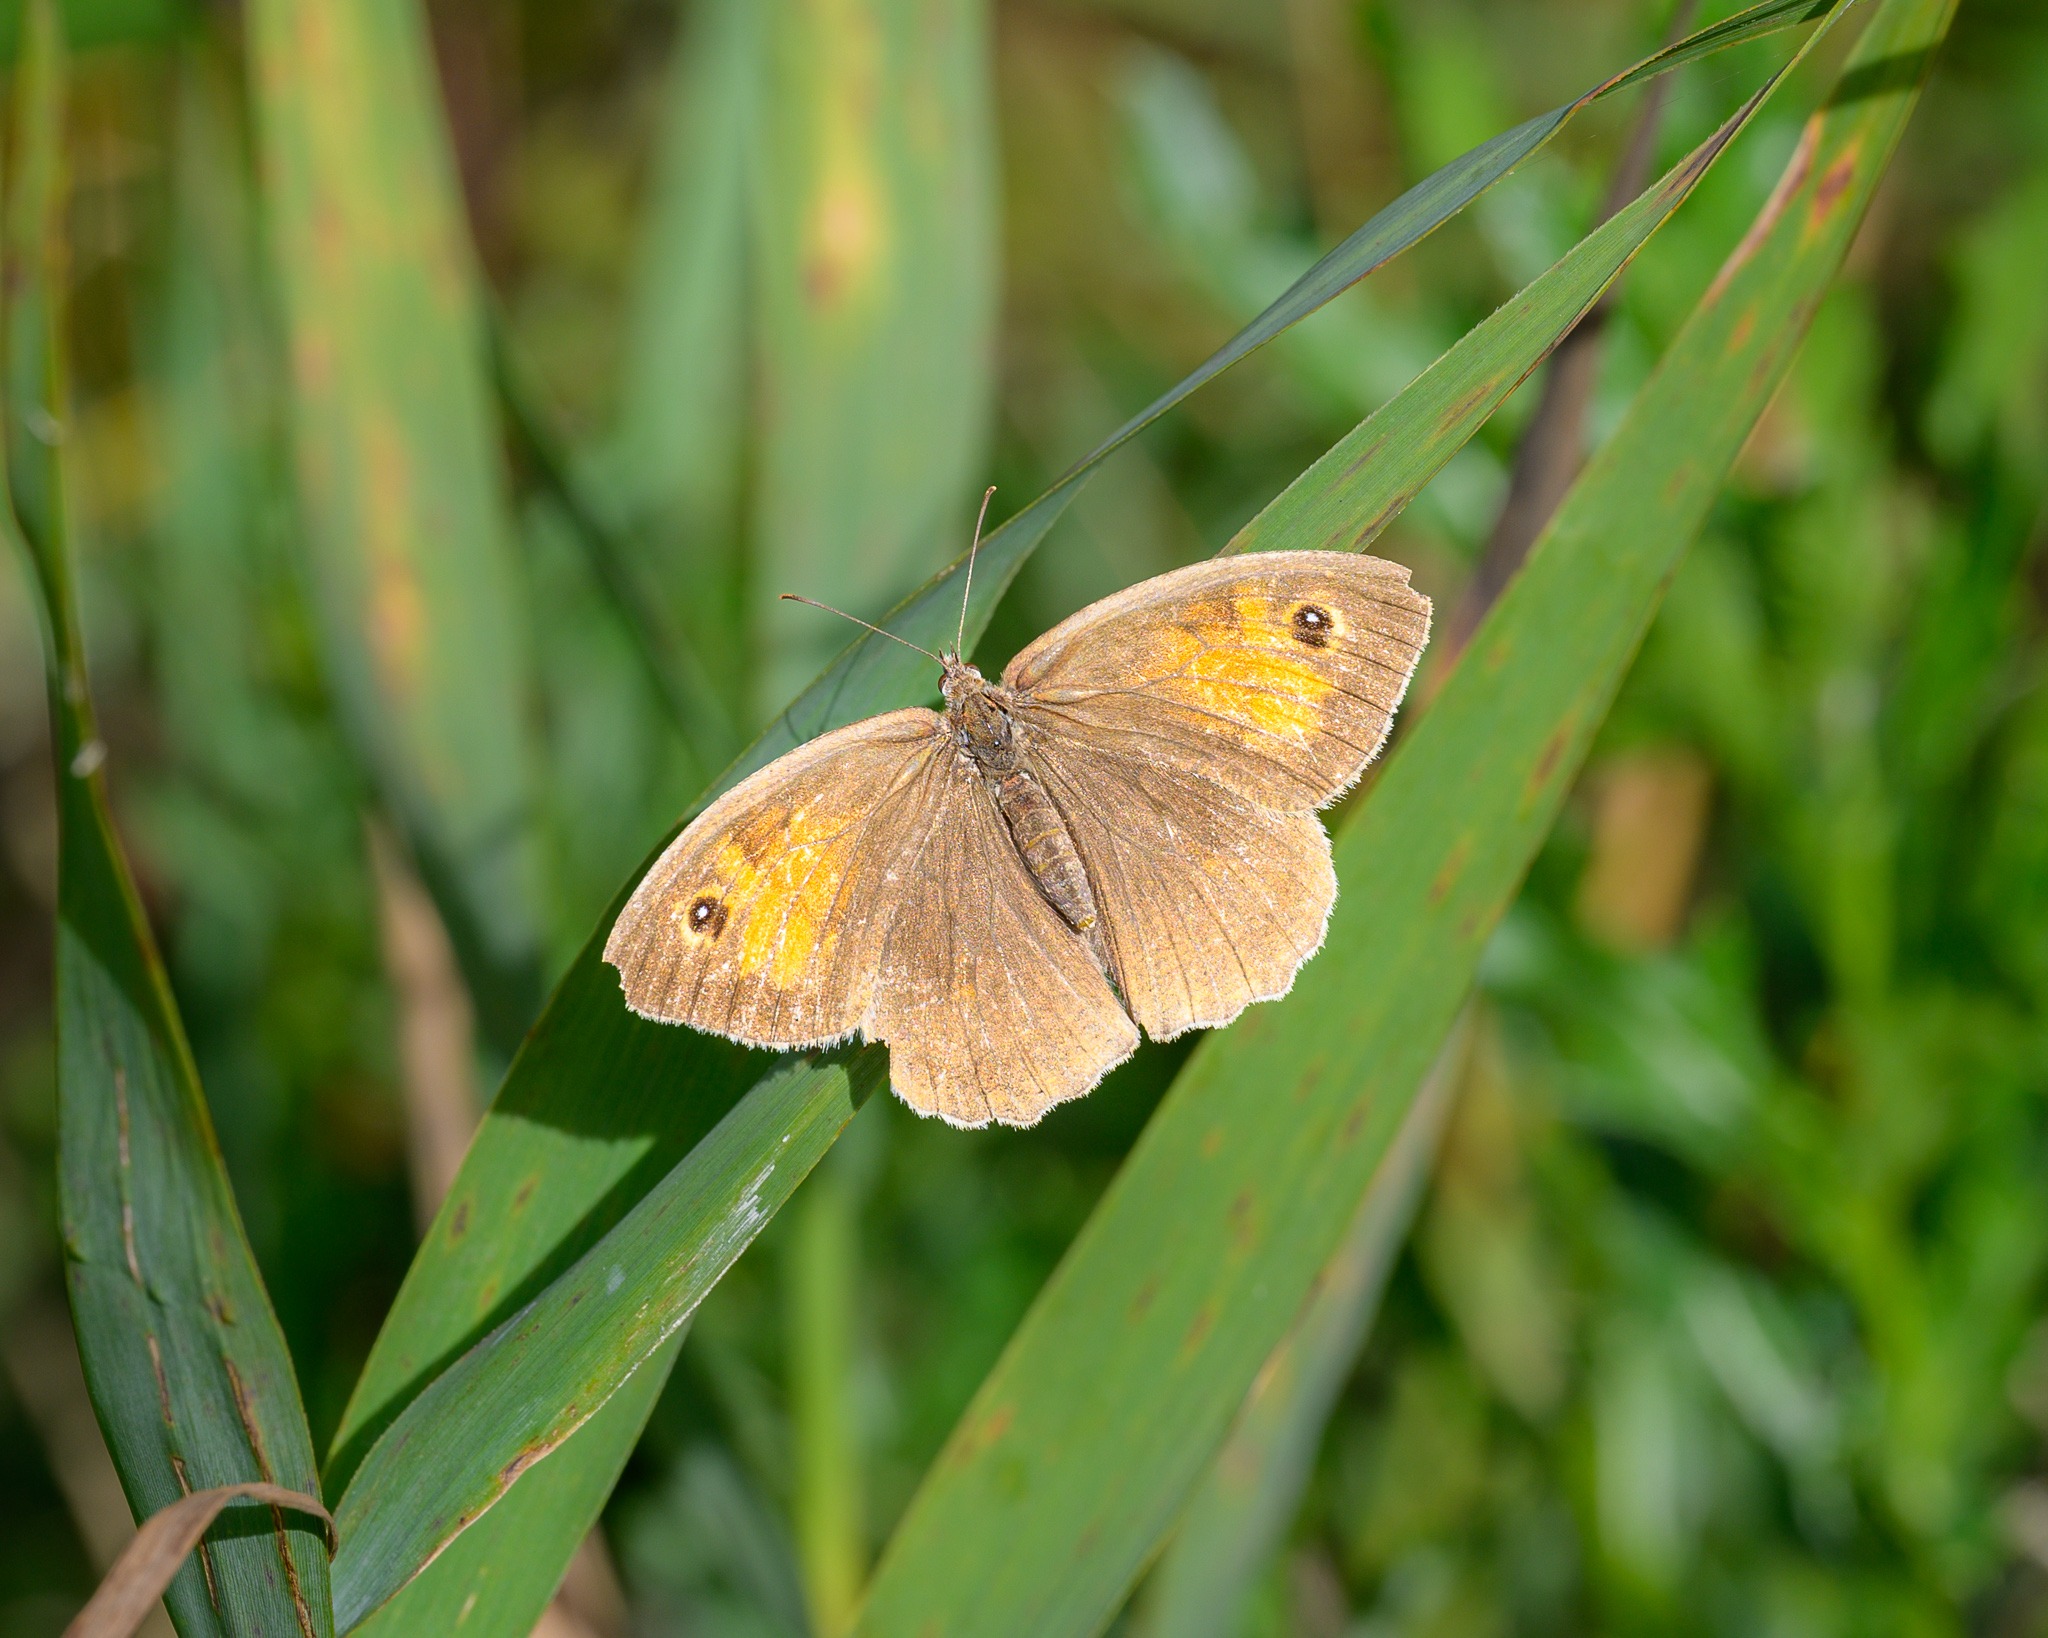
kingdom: Animalia
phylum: Arthropoda
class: Insecta
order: Lepidoptera
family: Nymphalidae
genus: Maniola
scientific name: Maniola jurtina
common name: Græsrandøje
